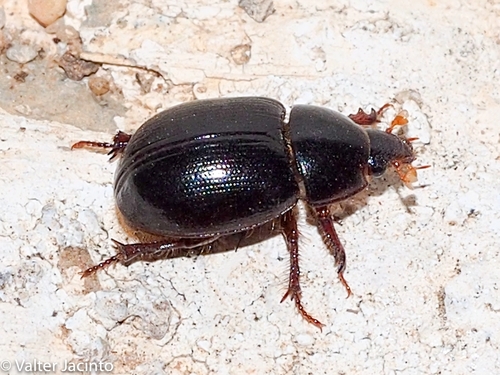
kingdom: Animalia
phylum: Arthropoda
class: Insecta
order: Coleoptera
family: Hybosoridae
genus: Hybosorus
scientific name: Hybosorus illigeri
